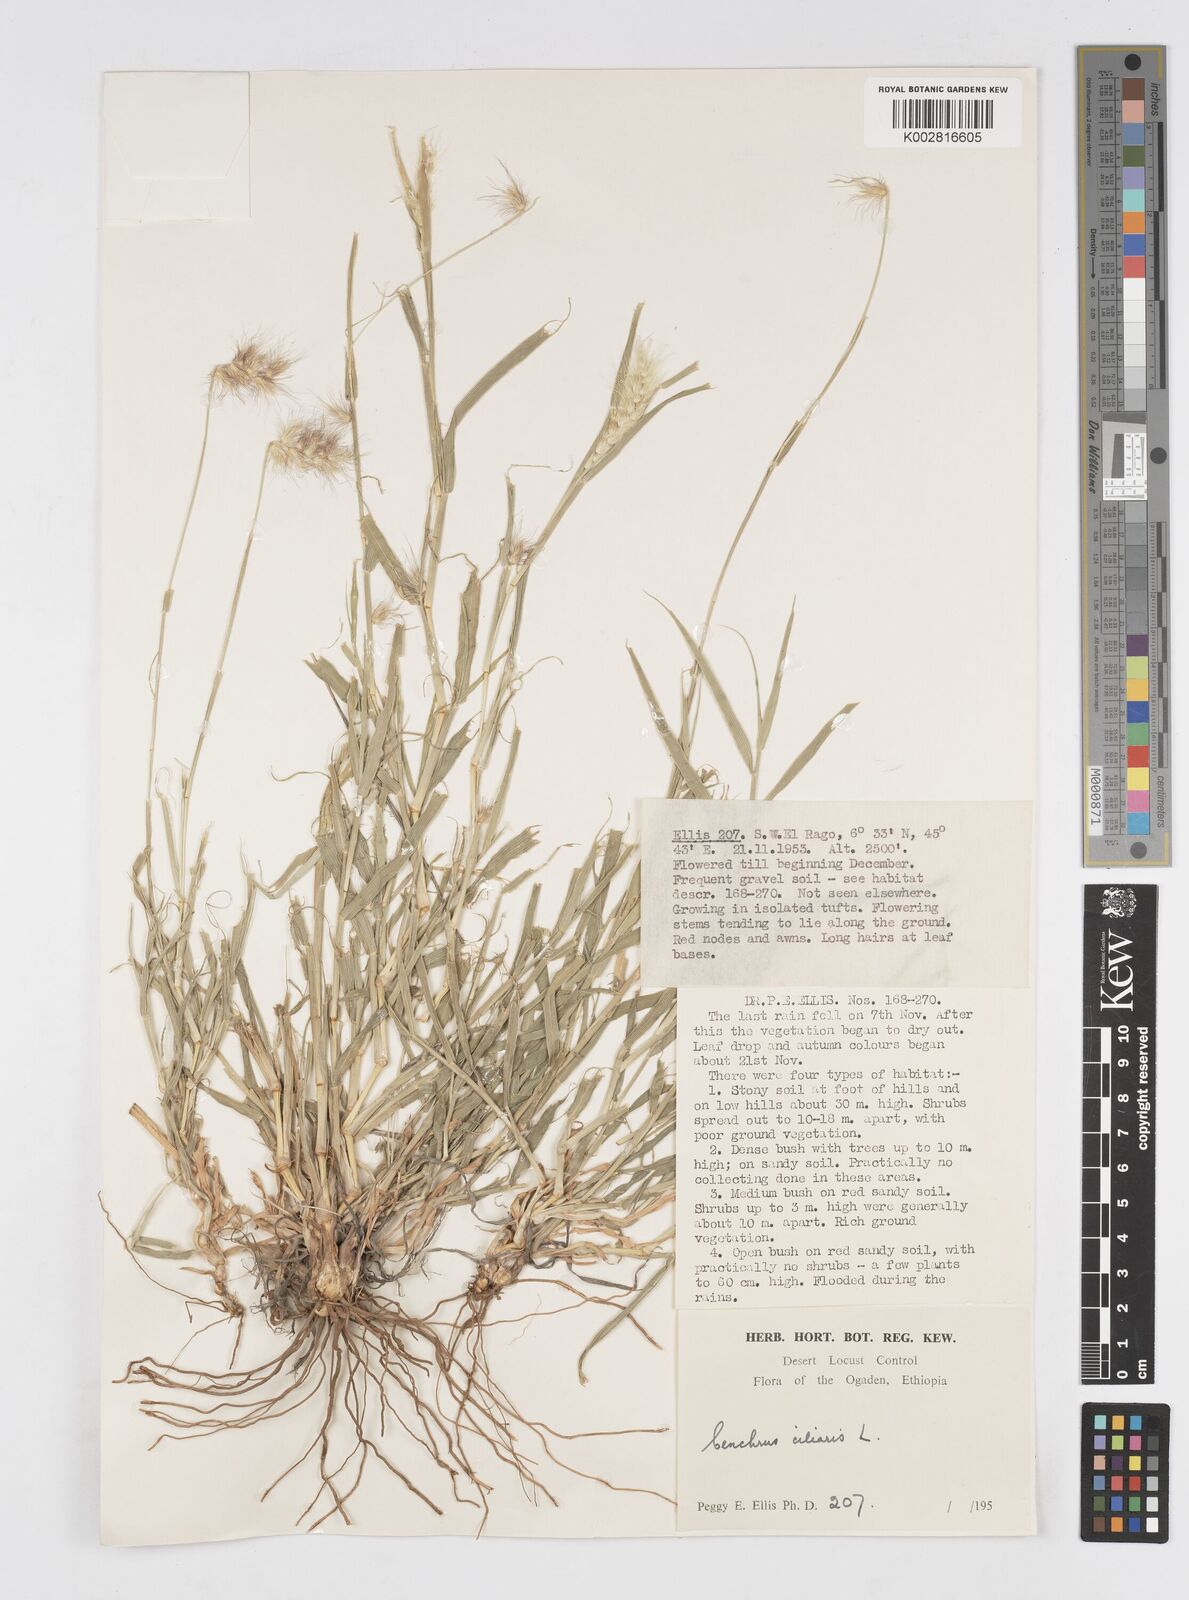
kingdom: Plantae
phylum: Tracheophyta
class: Liliopsida
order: Poales
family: Poaceae
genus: Cenchrus
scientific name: Cenchrus ciliaris
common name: Buffelgrass
